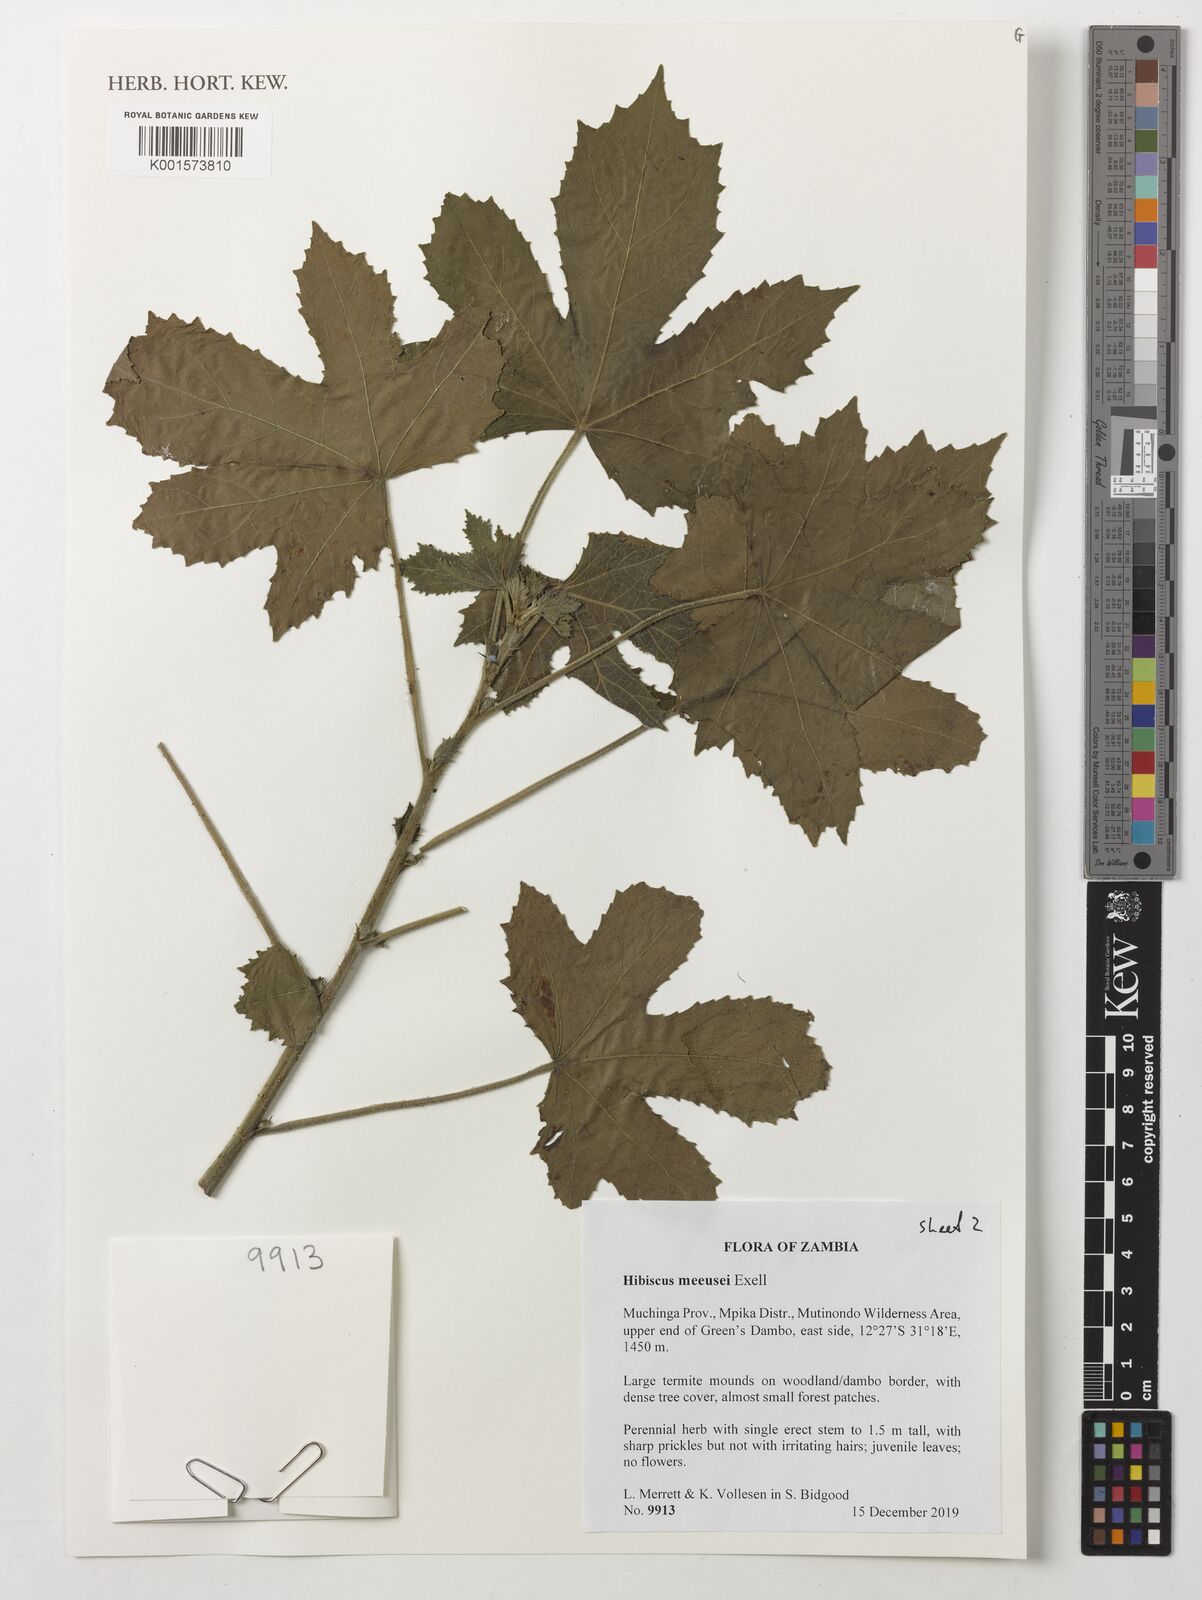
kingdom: Plantae
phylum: Tracheophyta
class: Magnoliopsida
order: Malvales
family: Malvaceae
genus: Hibiscus
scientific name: Hibiscus nigricaulis
